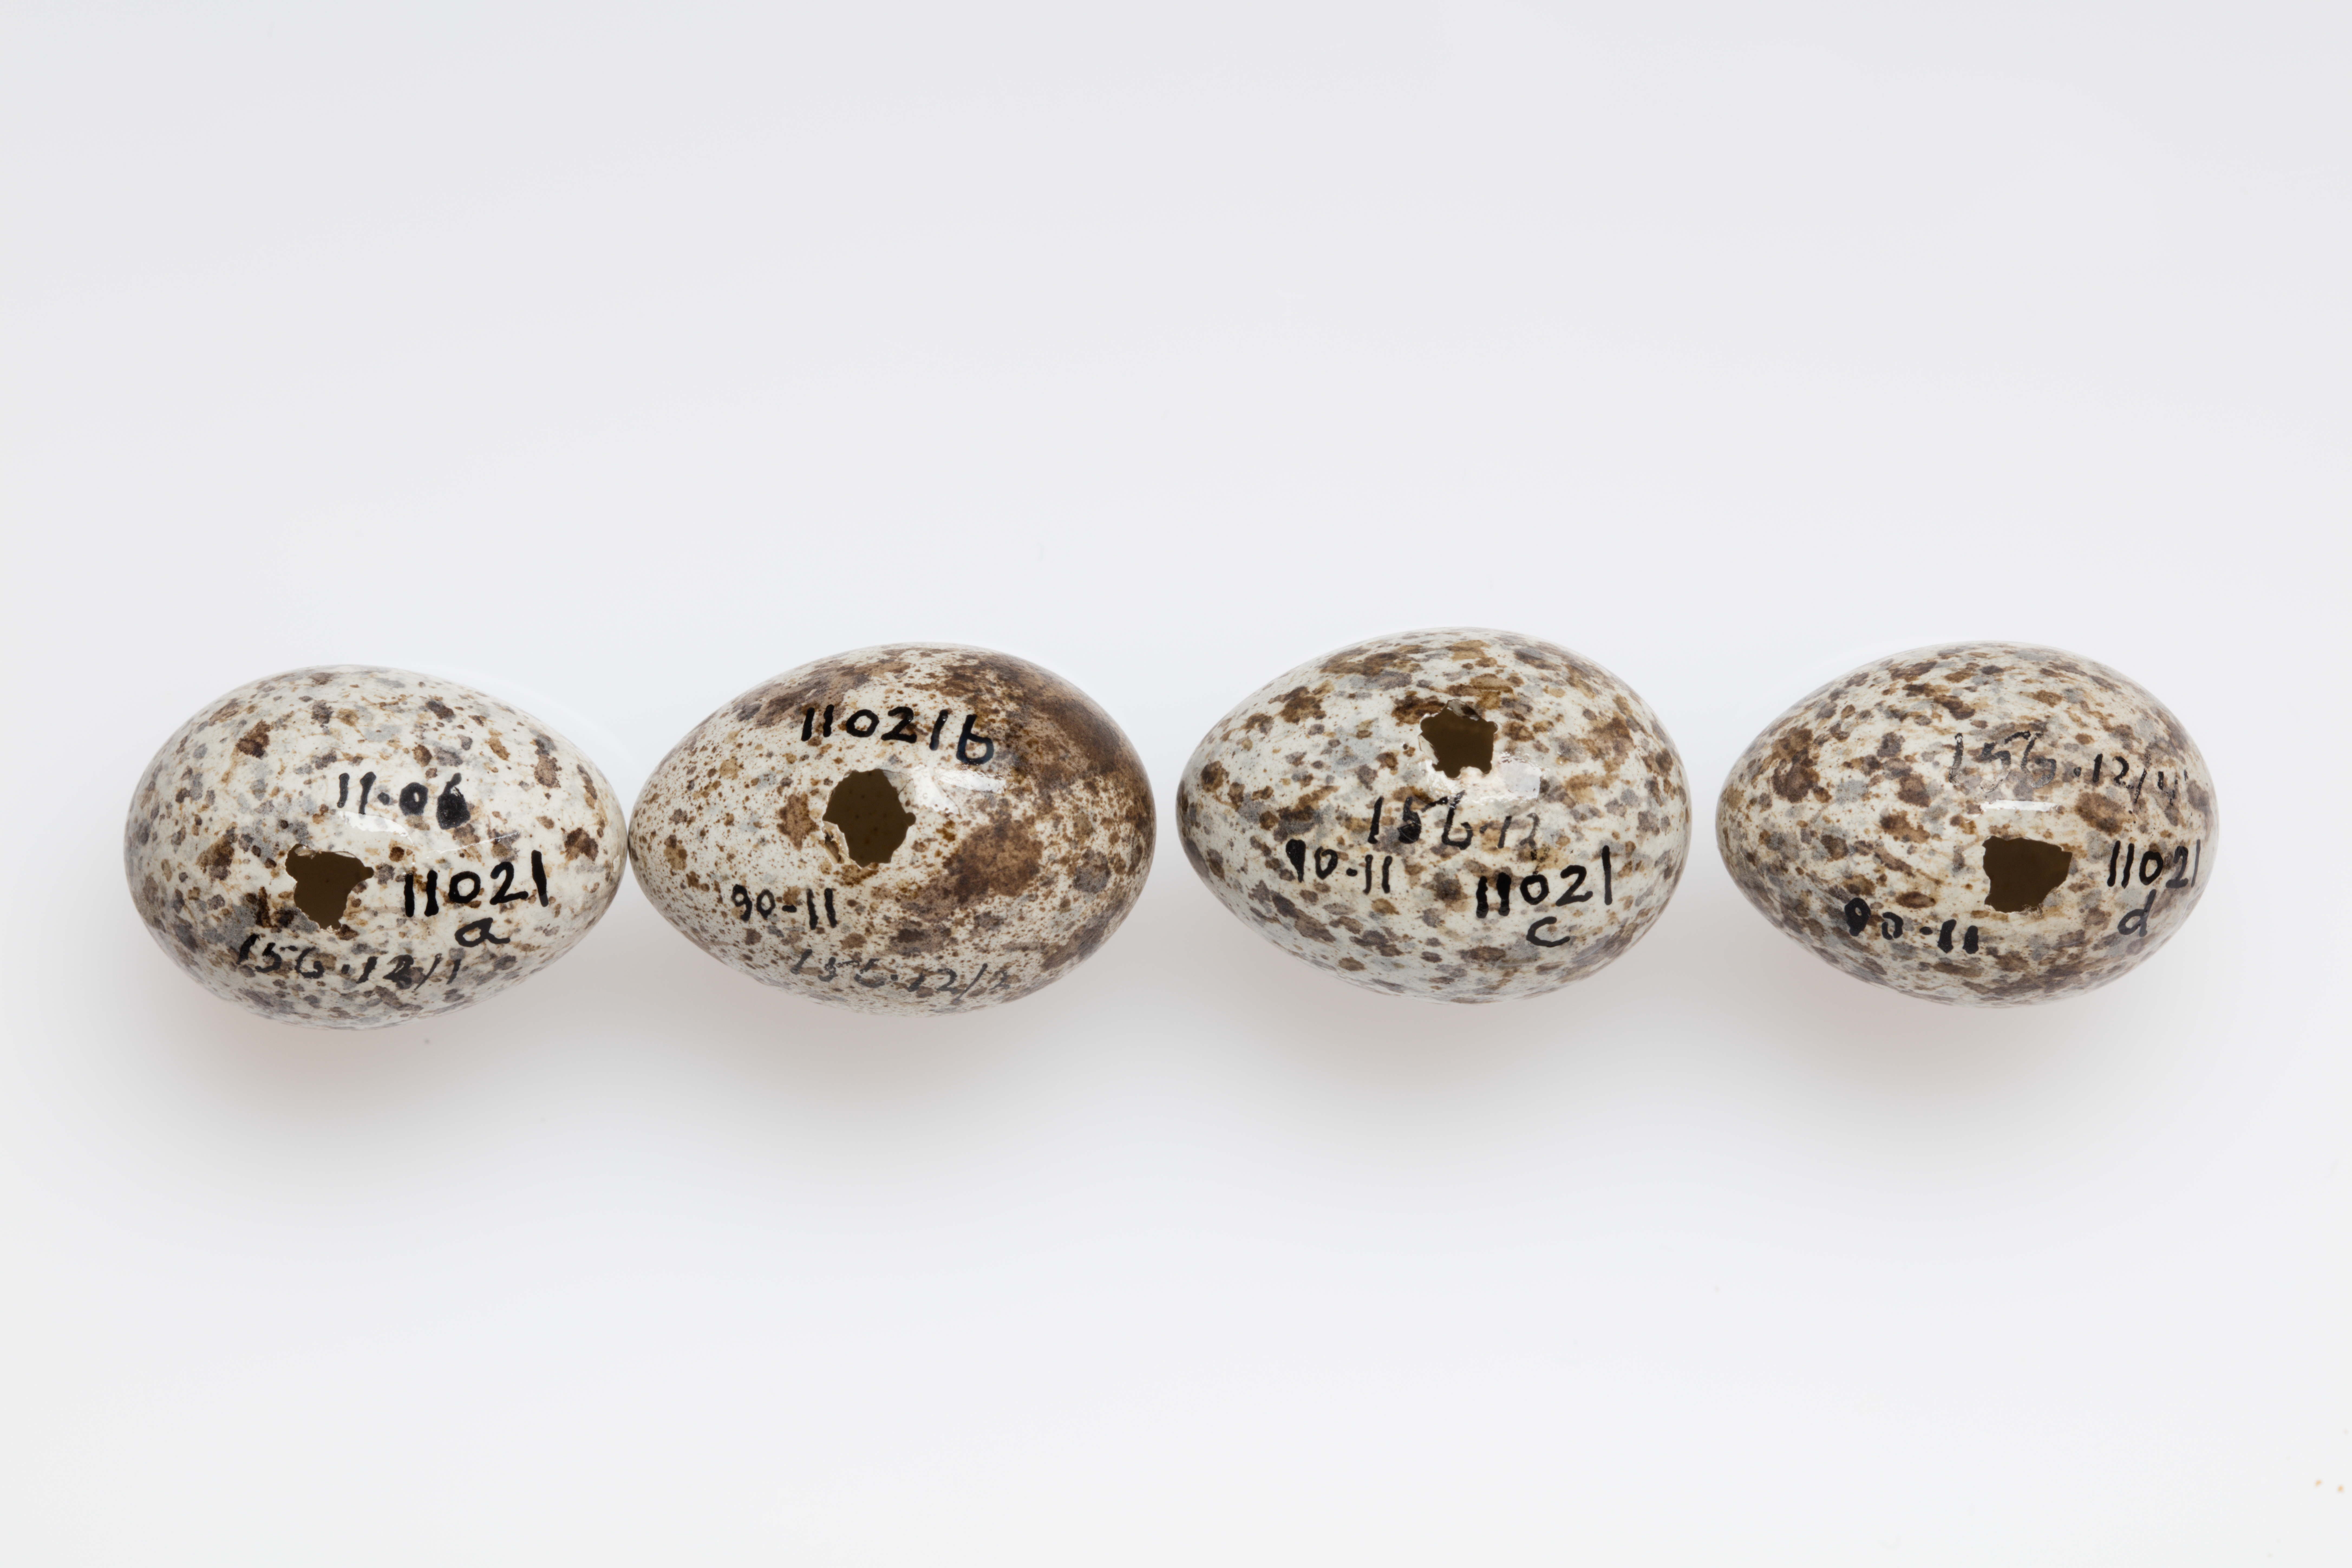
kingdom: Animalia
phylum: Chordata
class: Aves
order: Passeriformes
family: Motacillidae
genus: Anthus
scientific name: Anthus novaeseelandiae
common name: New zealand pipit
